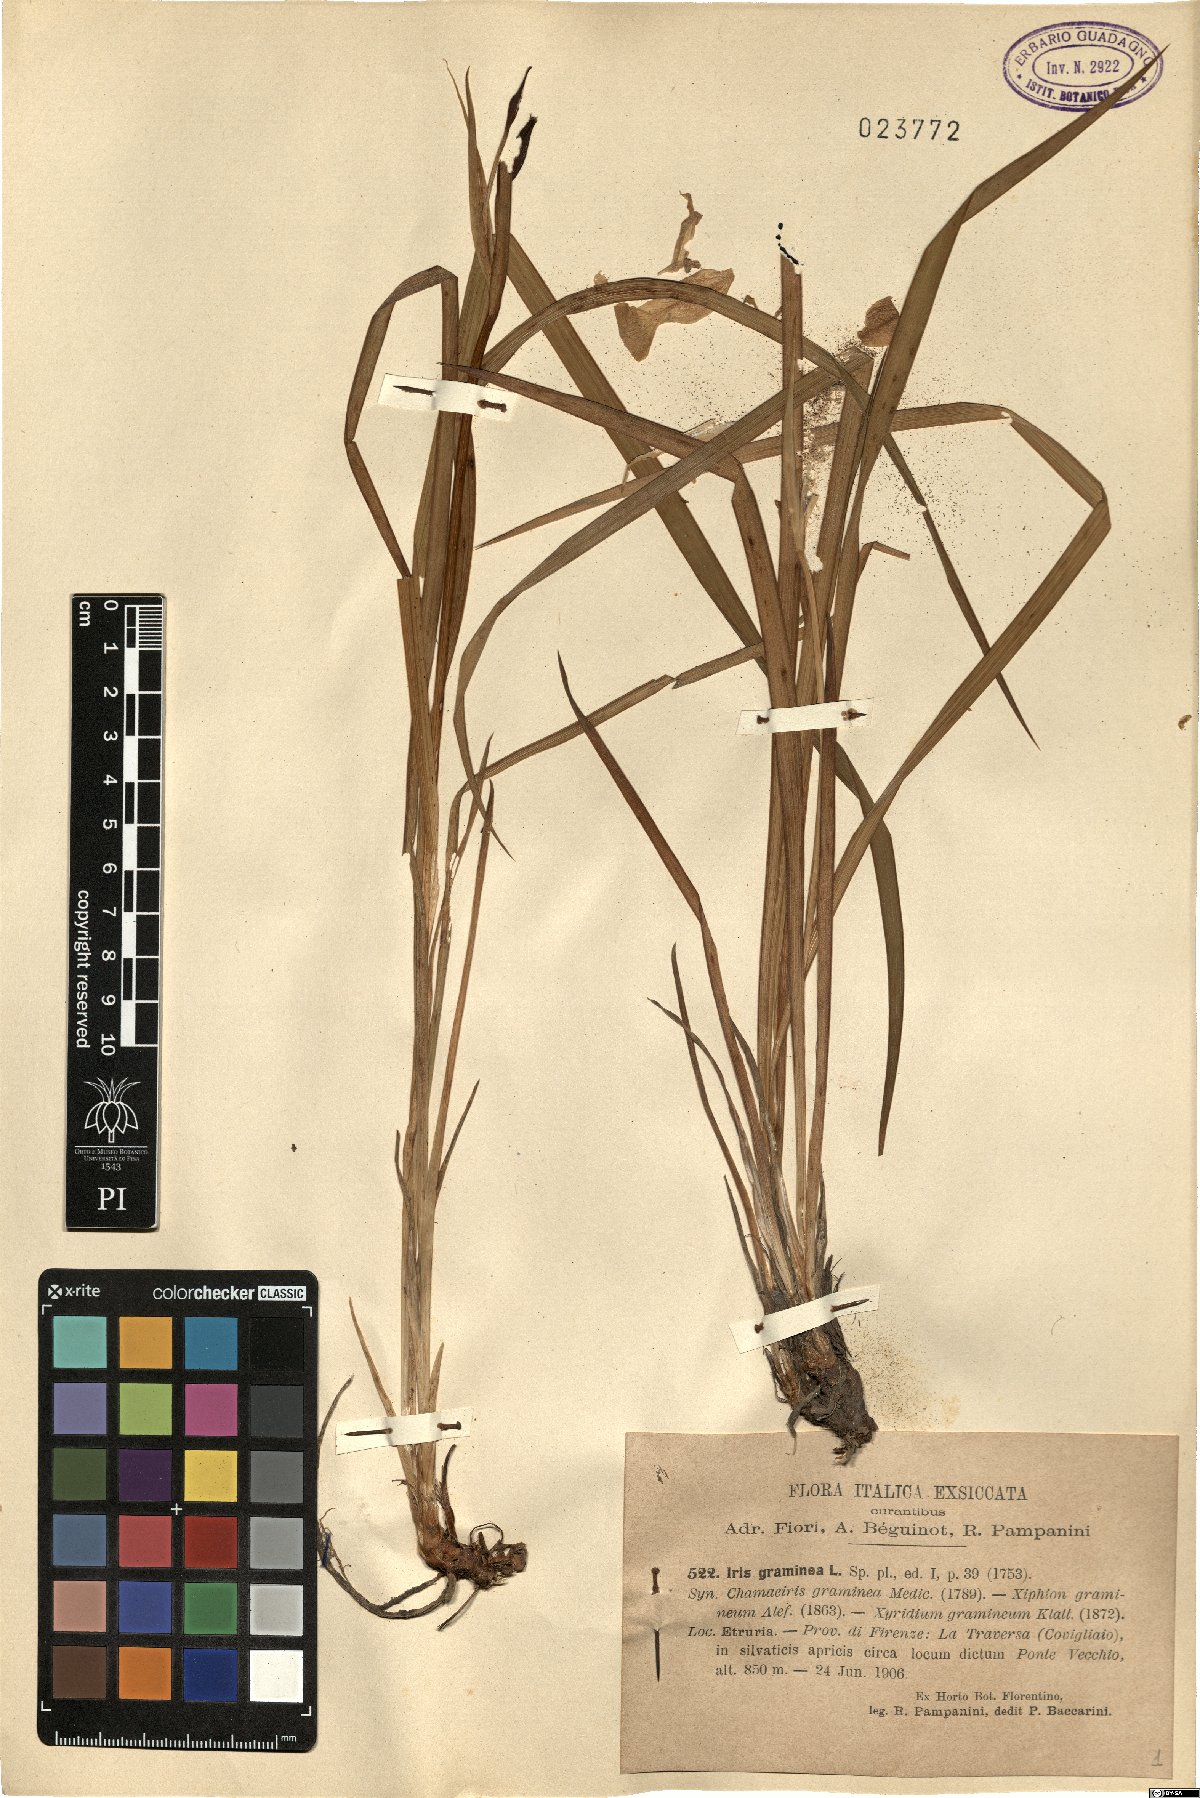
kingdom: Plantae
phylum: Tracheophyta
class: Liliopsida
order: Asparagales
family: Iridaceae
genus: Iris
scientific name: Iris graminea
